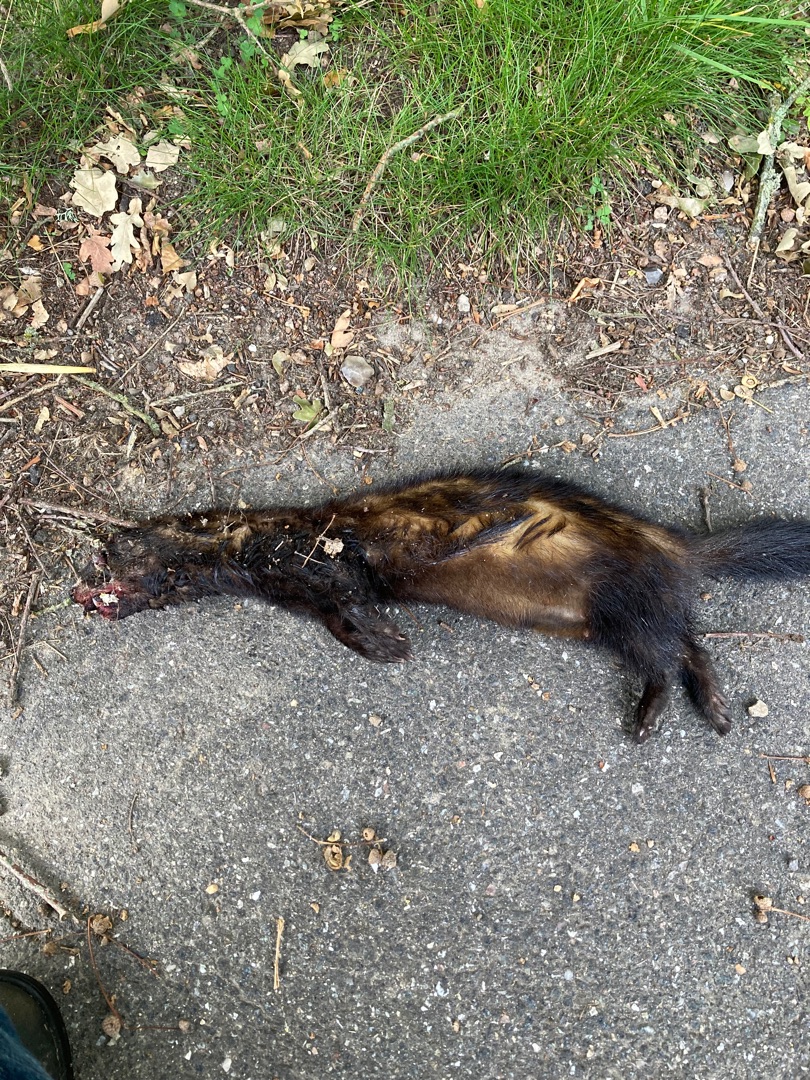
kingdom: Animalia
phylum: Chordata
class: Mammalia
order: Carnivora
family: Mustelidae
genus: Mustela
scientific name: Mustela putorius
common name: Ilder
